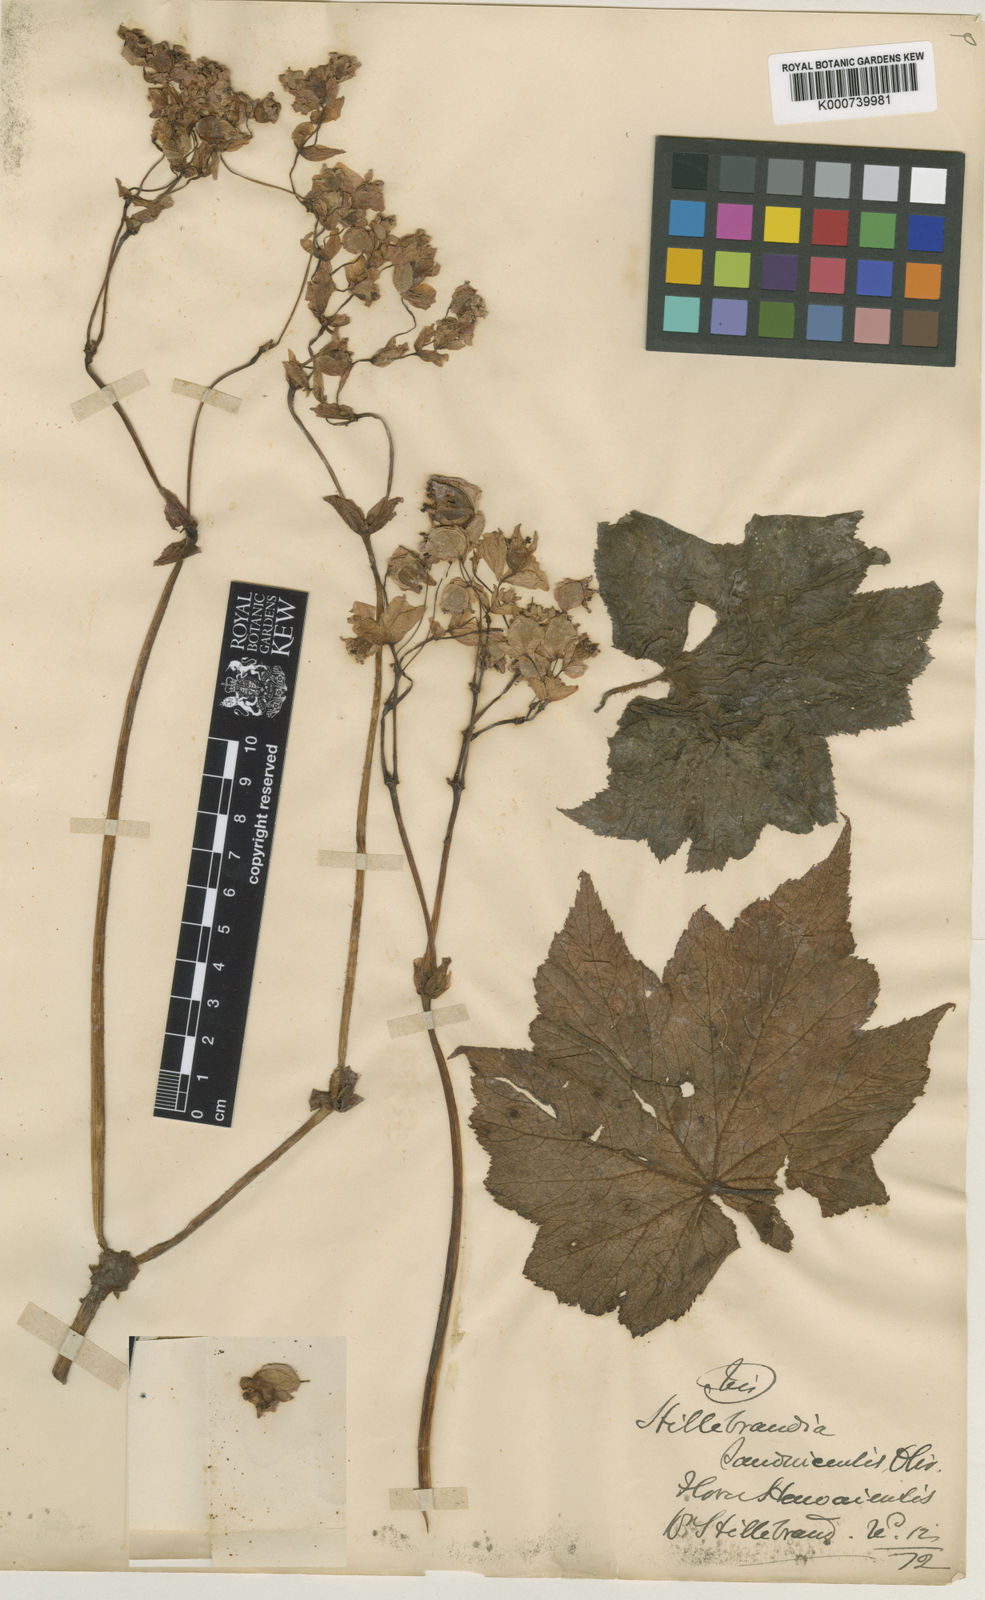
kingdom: Plantae
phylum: Tracheophyta
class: Magnoliopsida
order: Cucurbitales
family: Begoniaceae
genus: Hillebrandia
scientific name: Hillebrandia sandwicensis
